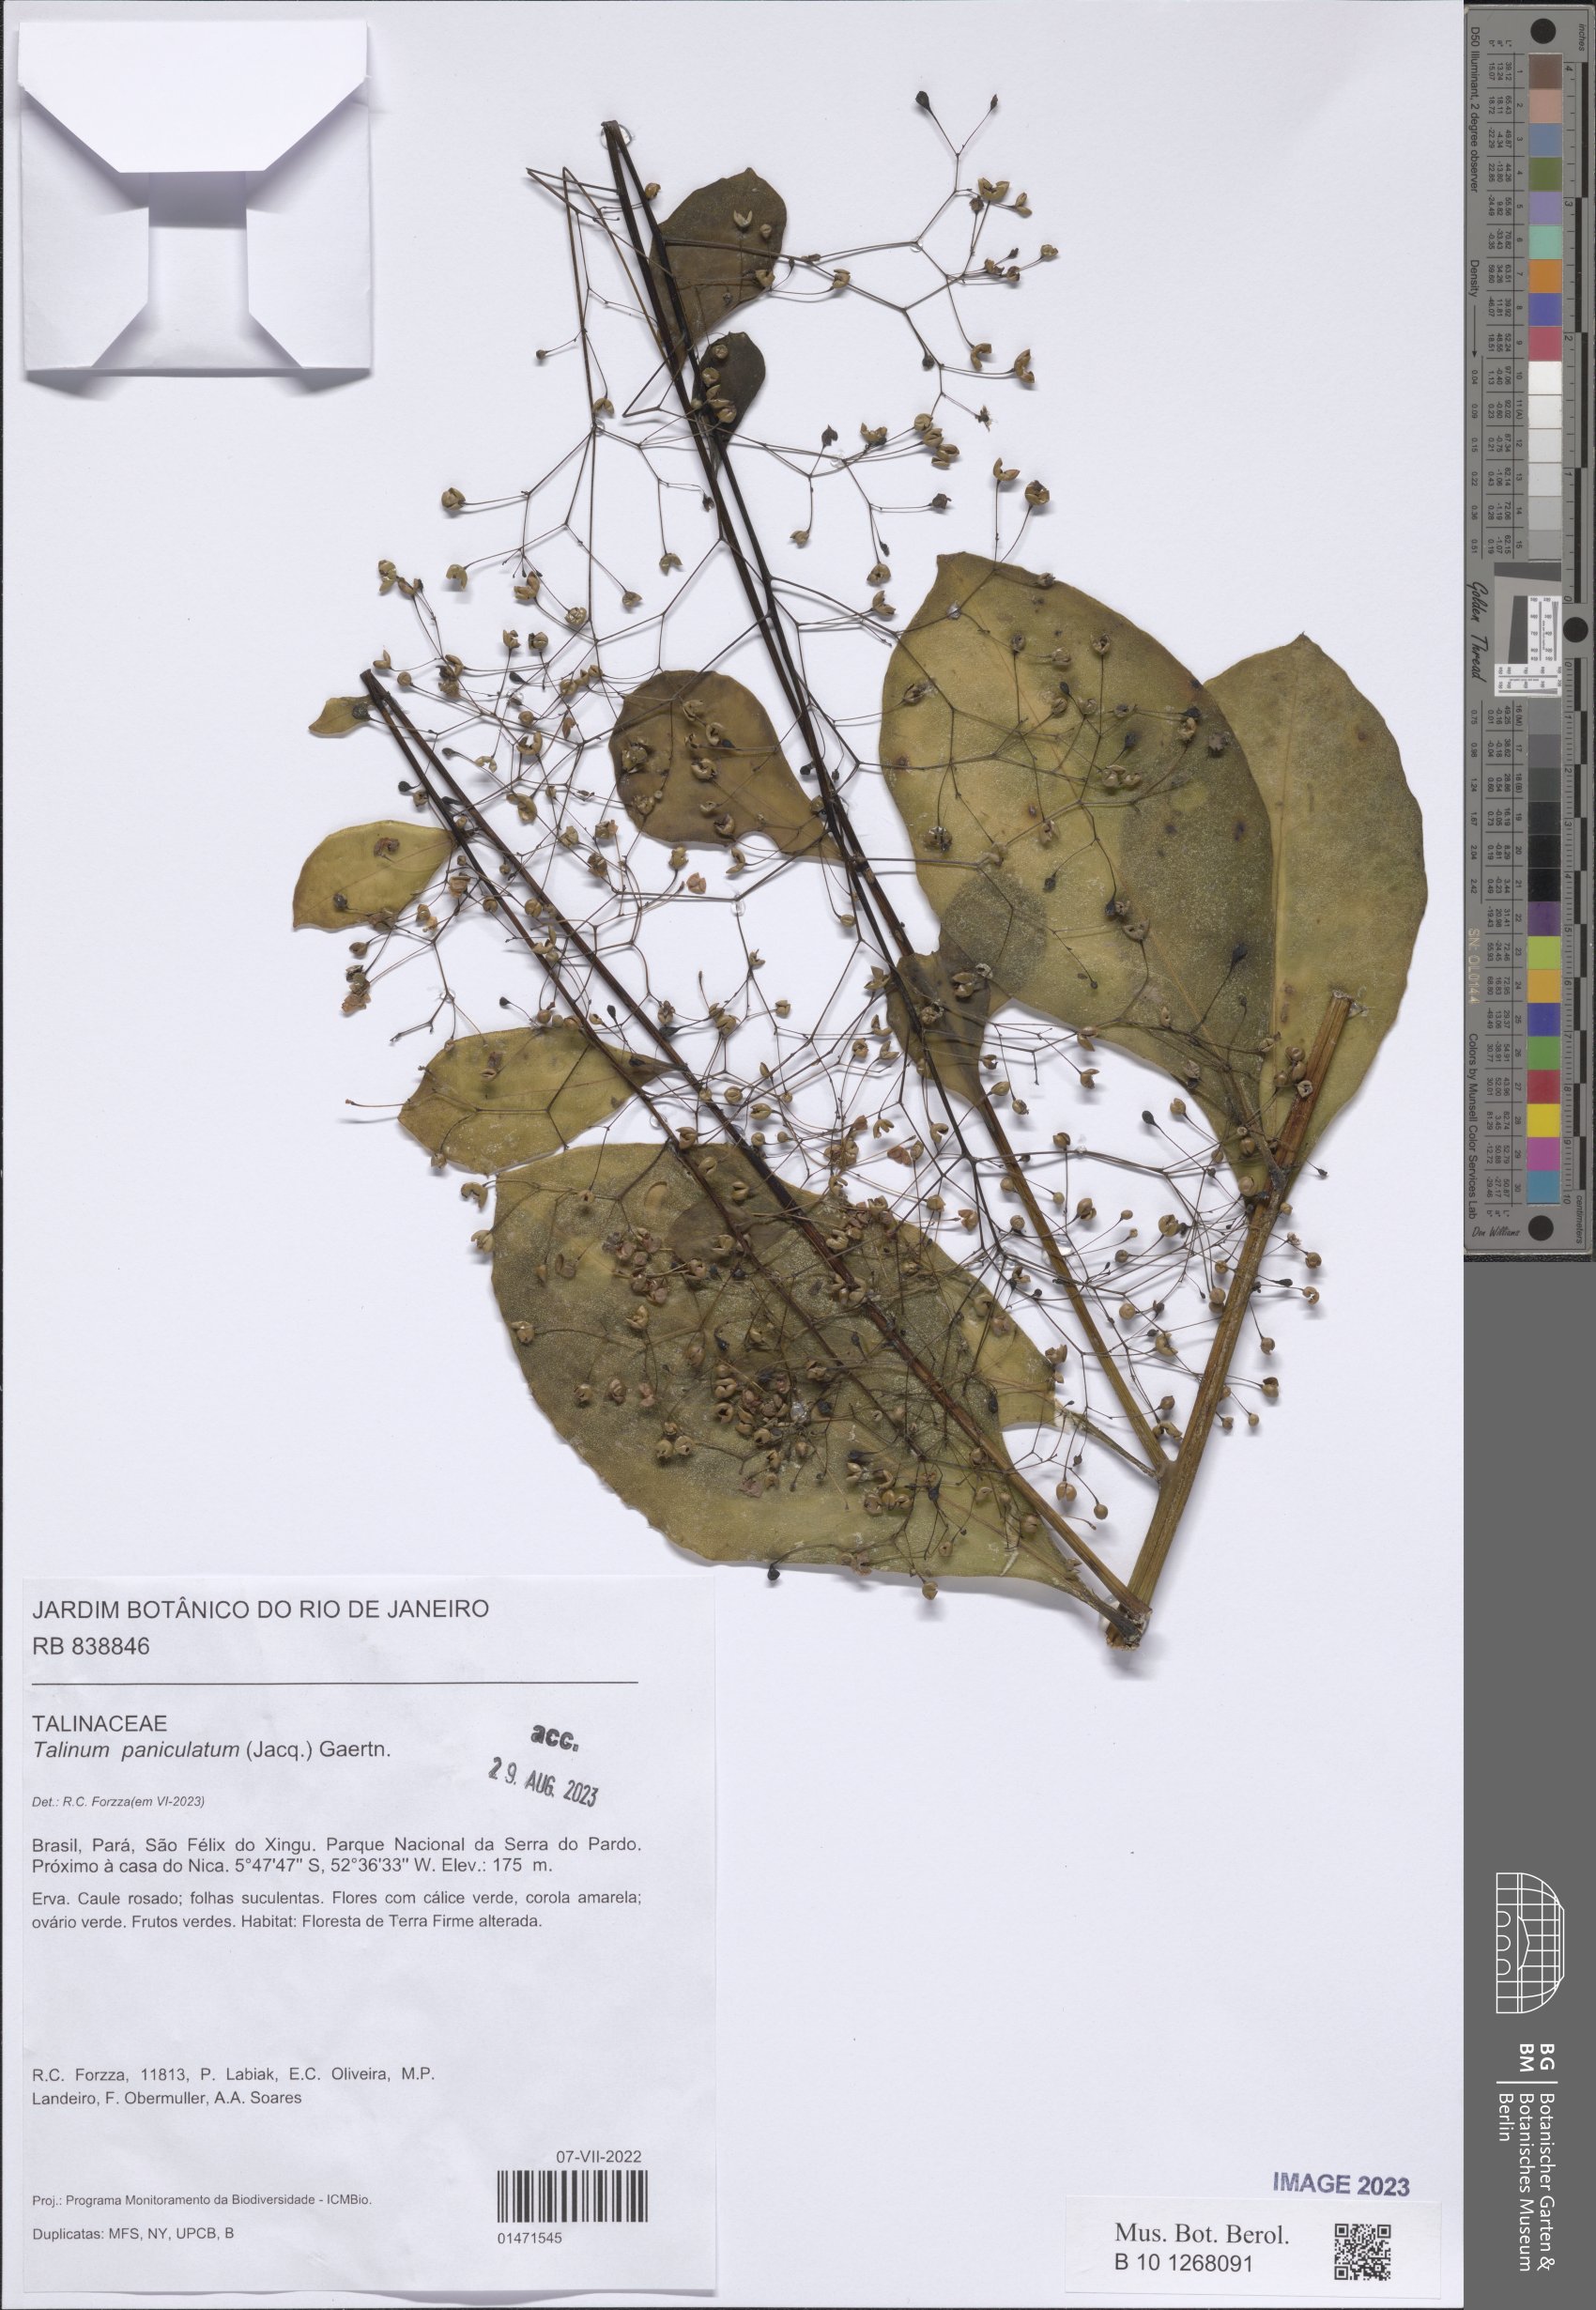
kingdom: Plantae
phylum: Tracheophyta
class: Magnoliopsida
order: Caryophyllales
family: Talinaceae
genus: Talinum
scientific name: Talinum paniculatum
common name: Jewels of opar
